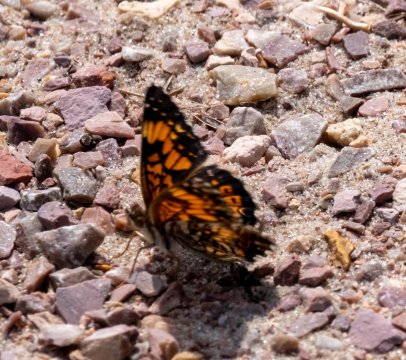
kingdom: Animalia
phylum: Arthropoda
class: Insecta
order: Lepidoptera
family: Nymphalidae
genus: Chlosyne
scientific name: Chlosyne gorgone
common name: Gorgone Checkerspot
